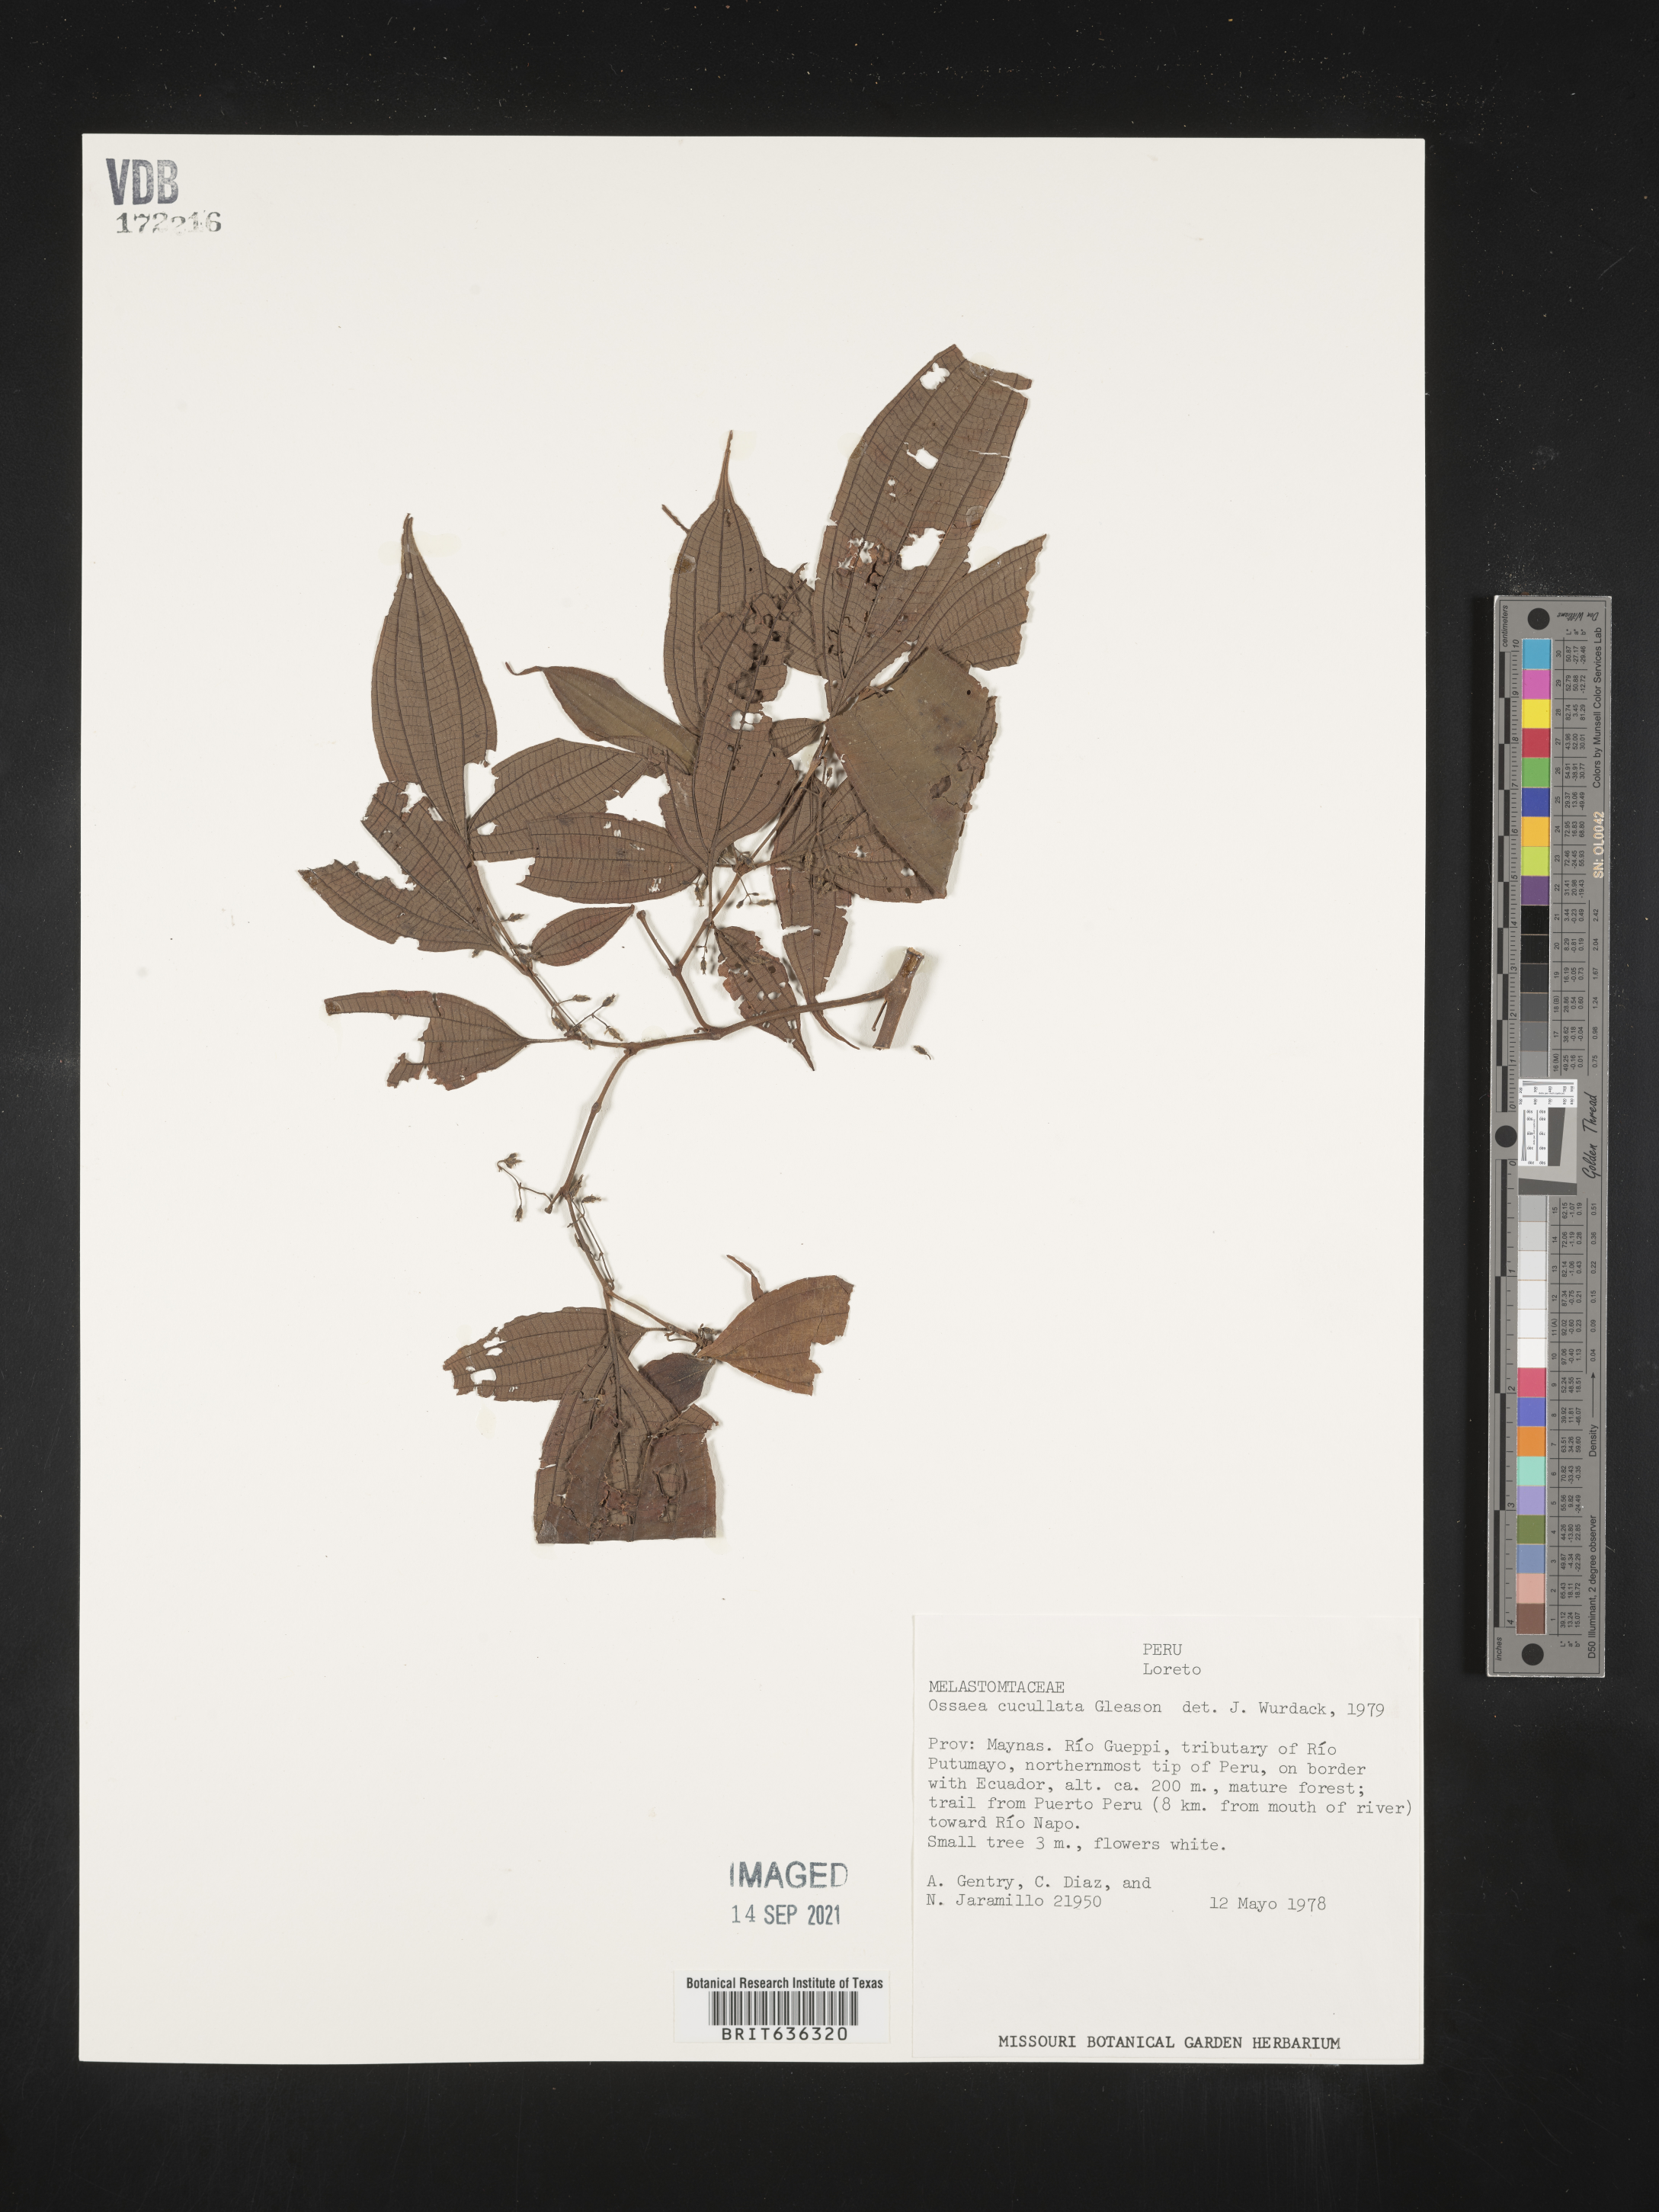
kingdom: Plantae
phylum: Tracheophyta
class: Magnoliopsida
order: Myrtales
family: Melastomataceae
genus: Ossaea
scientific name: Ossaea
